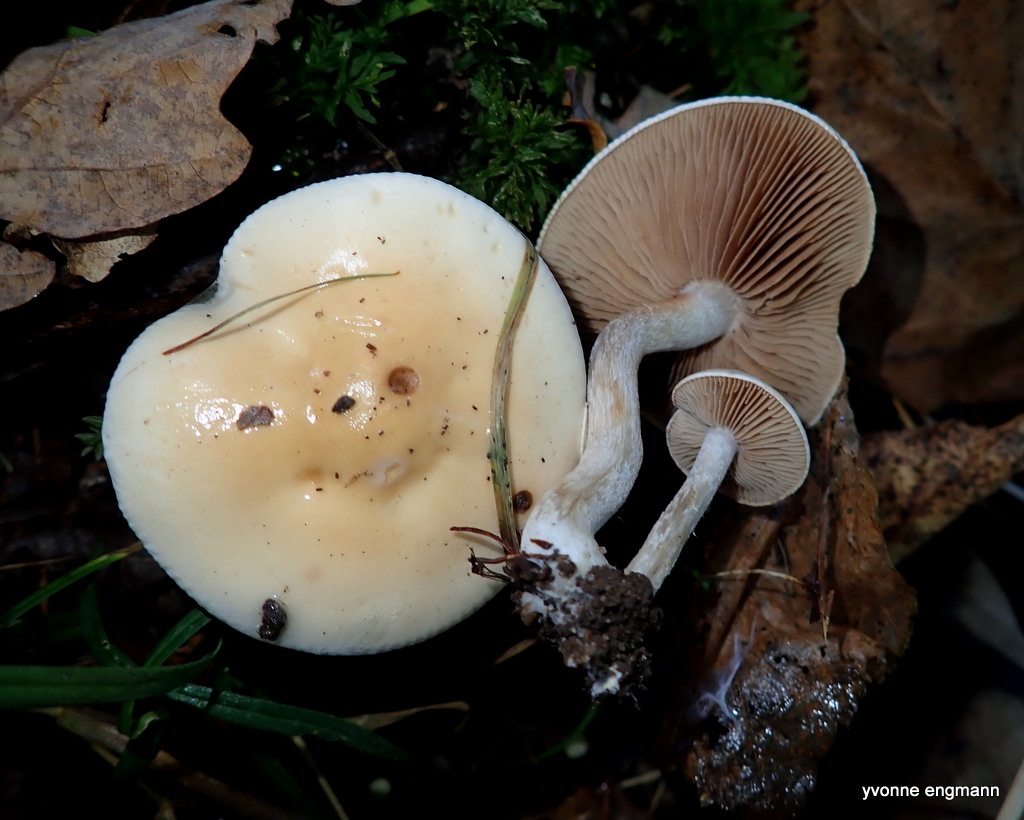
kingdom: Fungi
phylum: Basidiomycota
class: Agaricomycetes
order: Agaricales
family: Hymenogastraceae
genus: Hebeloma
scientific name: Hebeloma
